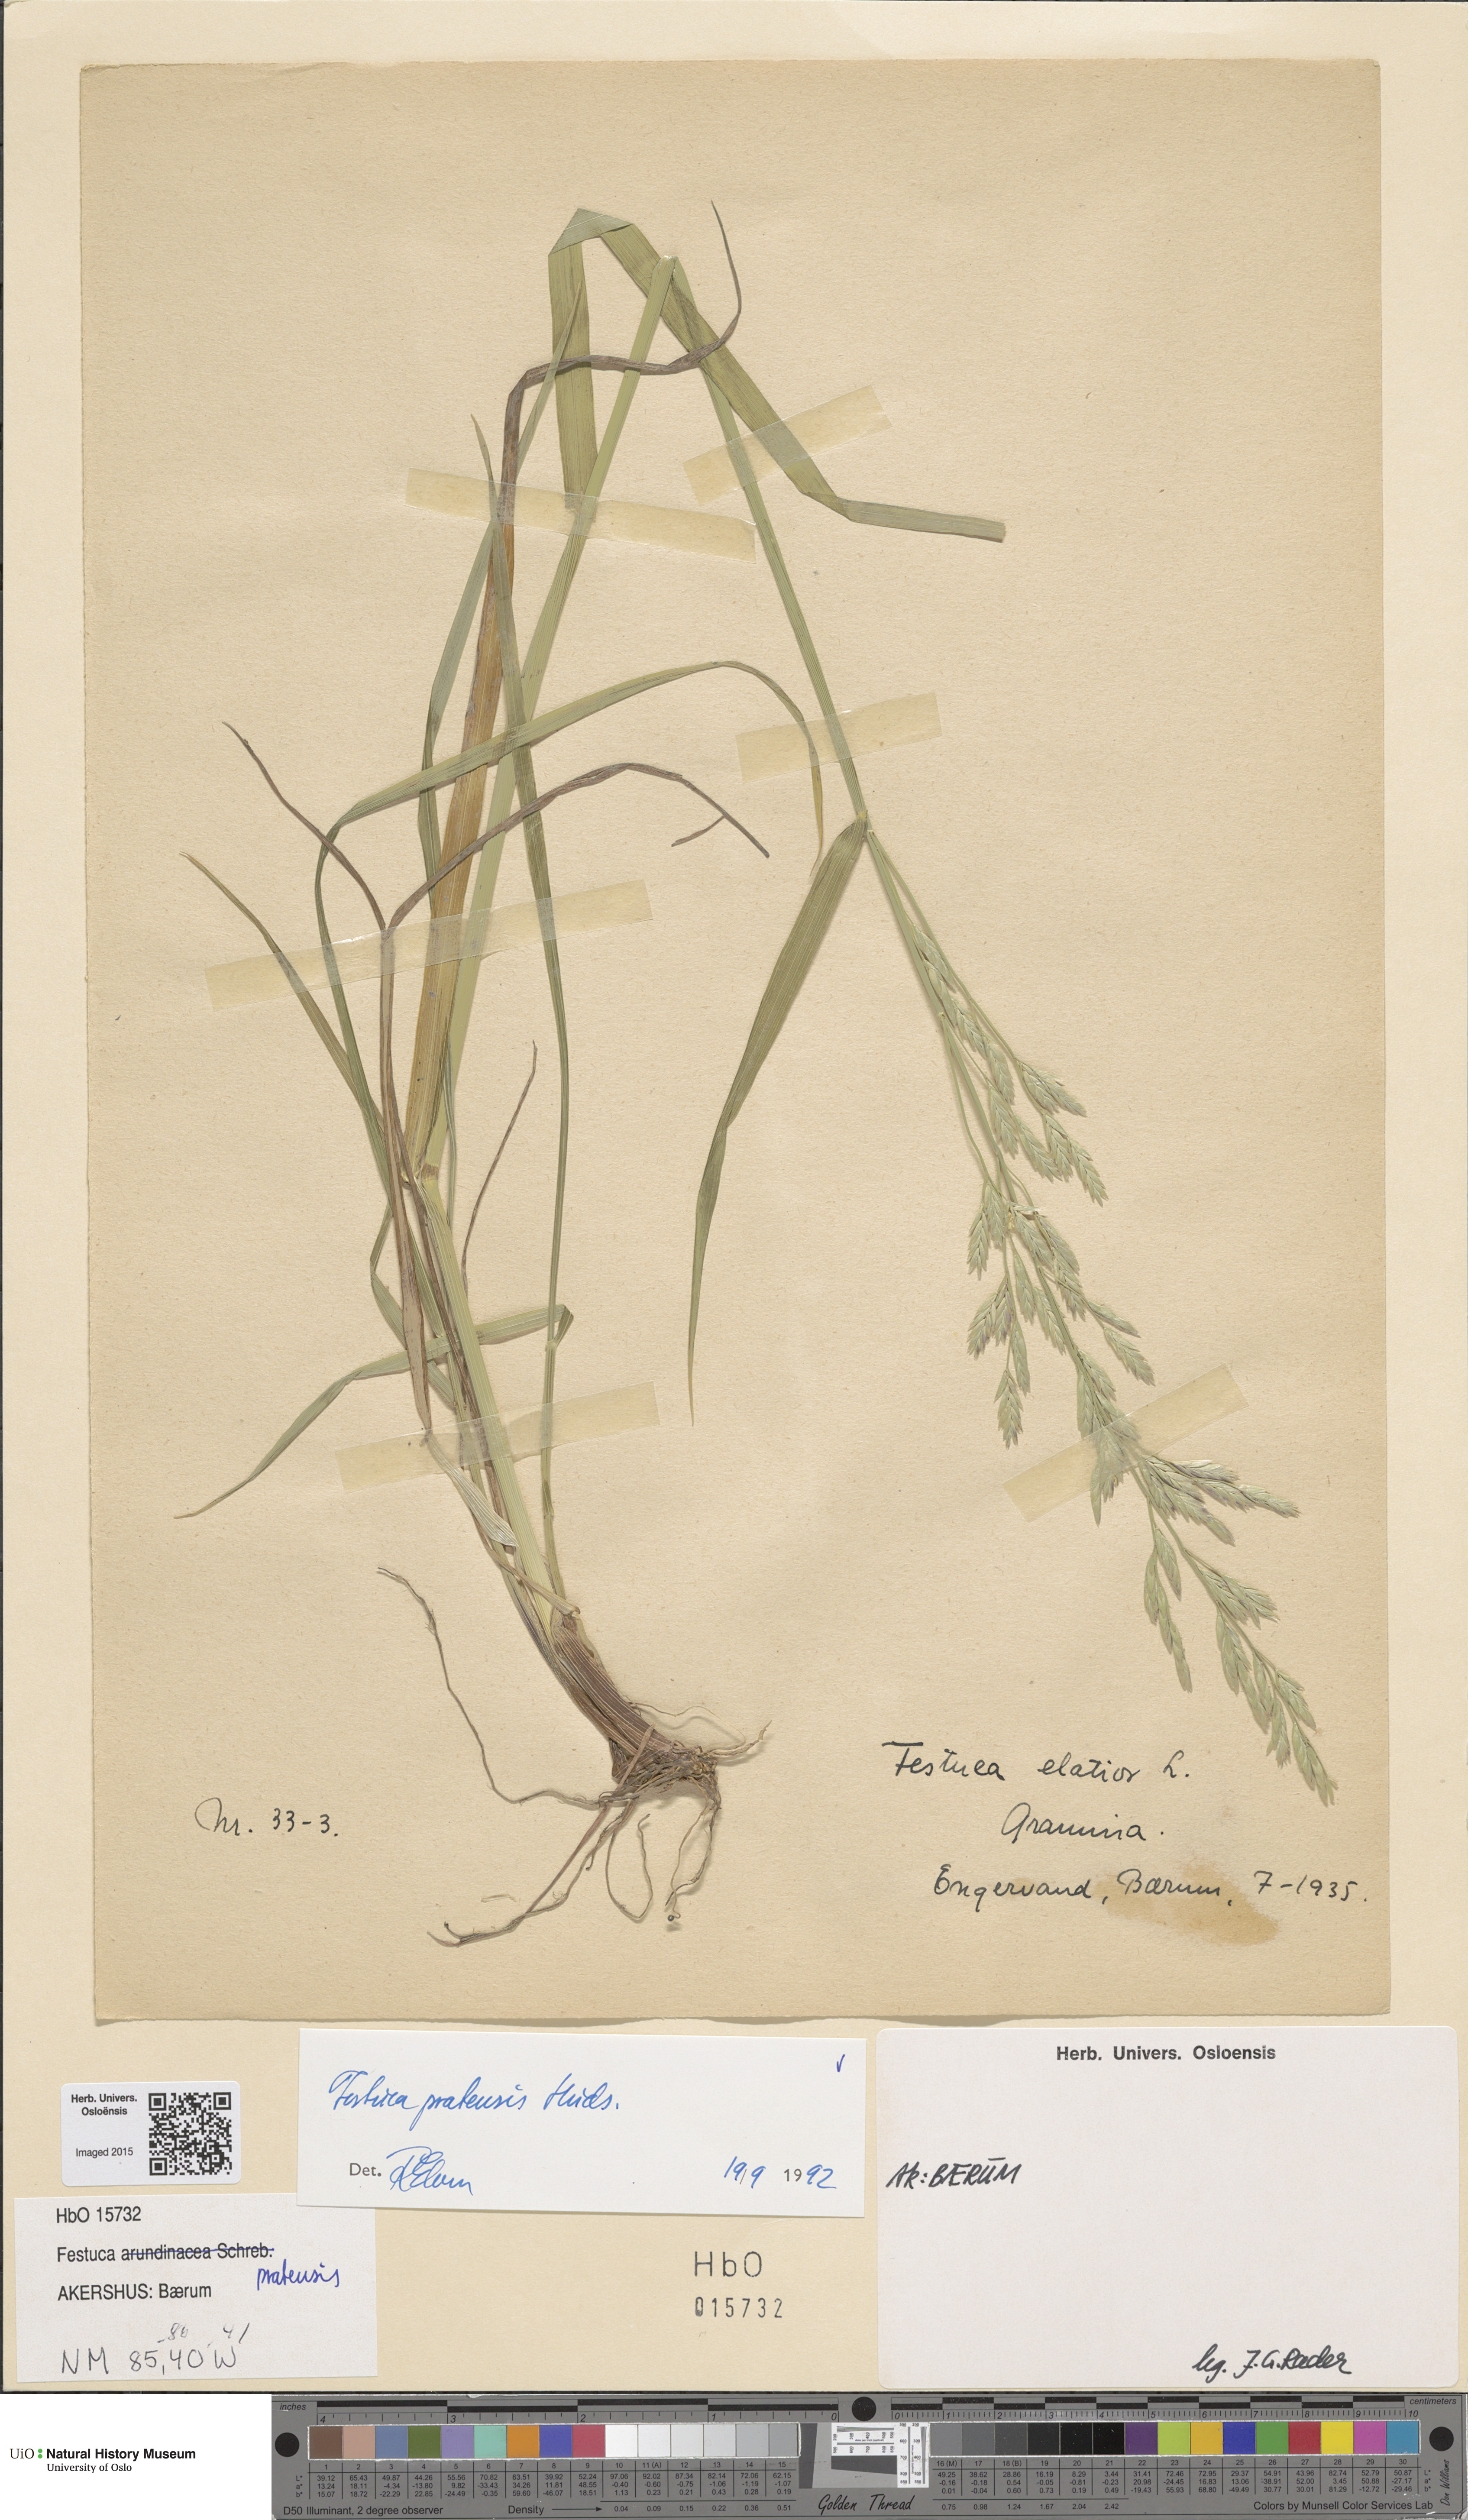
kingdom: Plantae
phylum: Tracheophyta
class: Liliopsida
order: Poales
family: Poaceae
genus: Lolium
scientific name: Lolium pratense
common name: Dover grass
